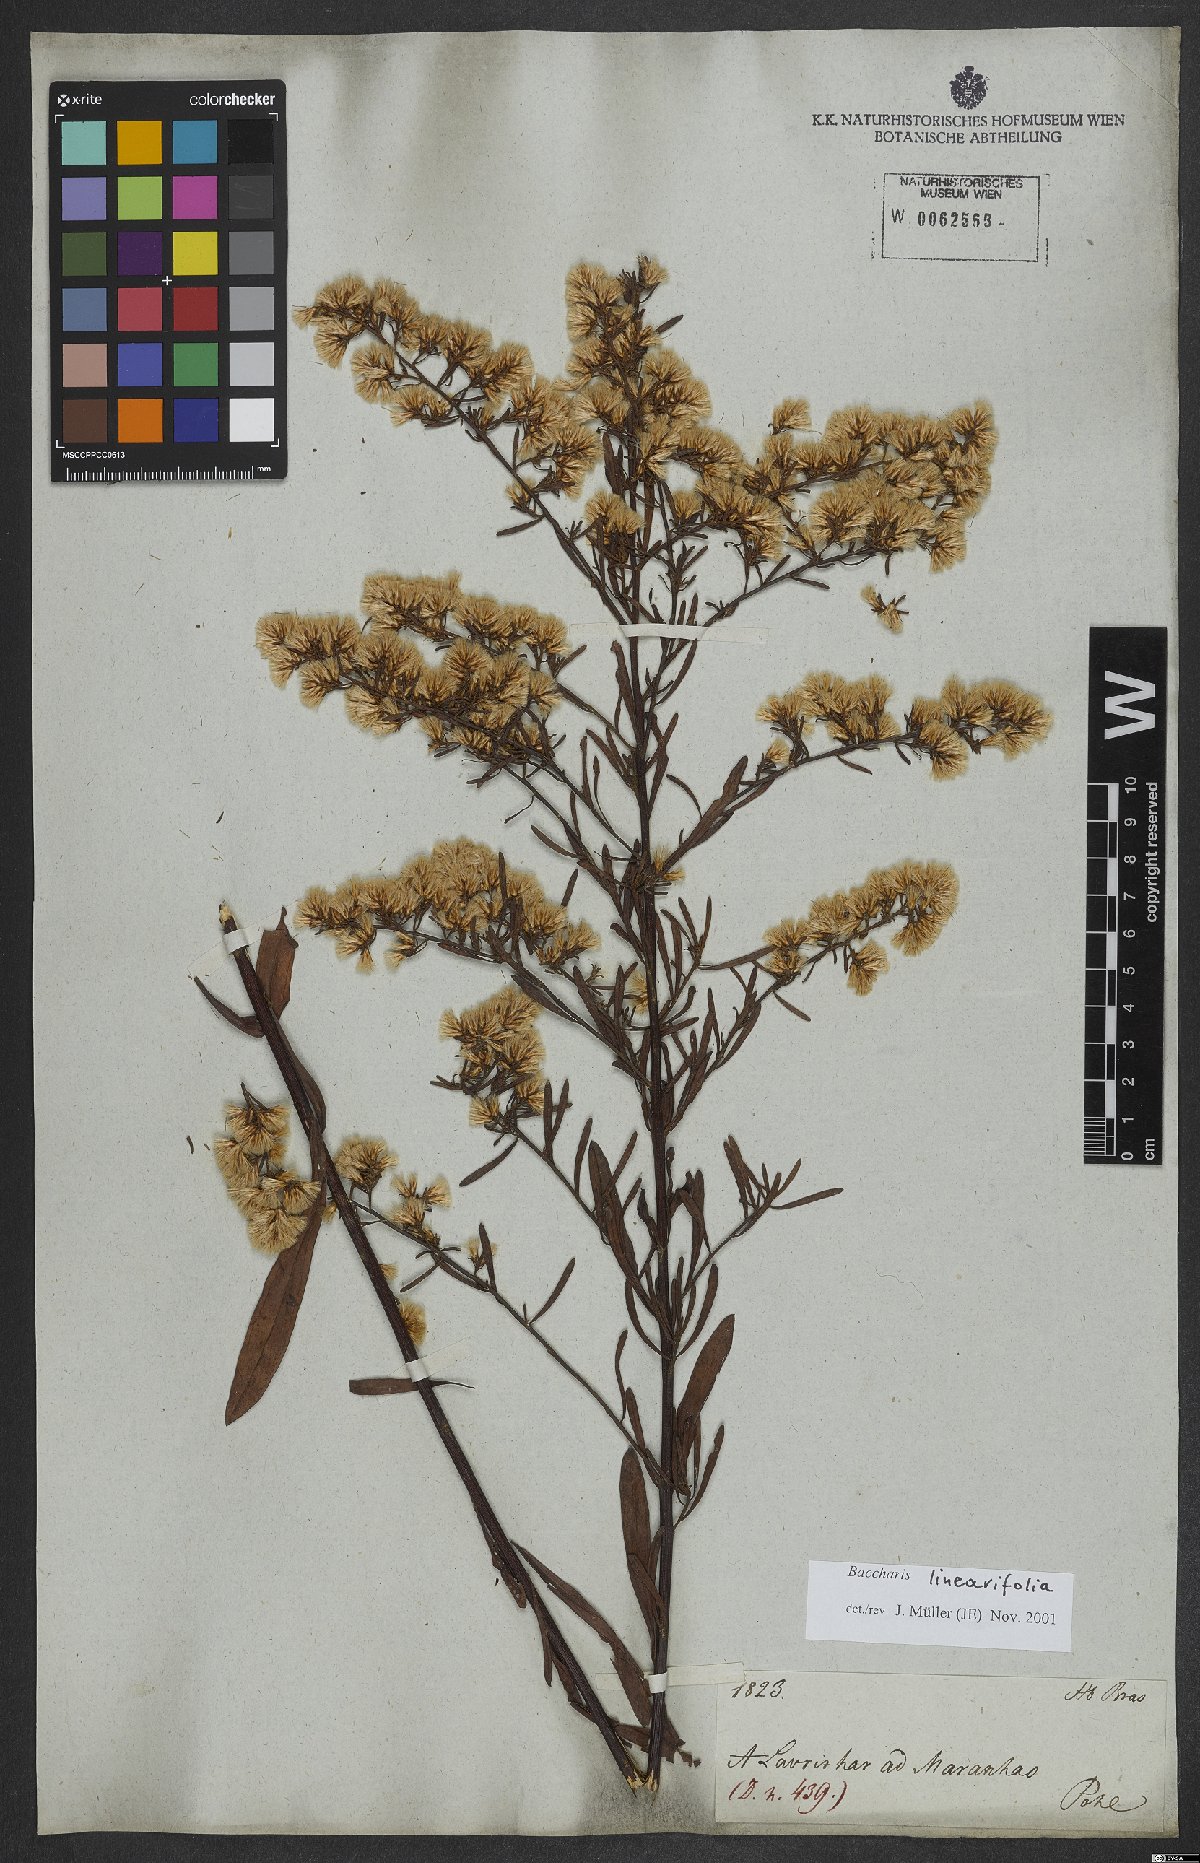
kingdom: Plantae
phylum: Tracheophyta
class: Magnoliopsida
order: Asterales
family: Asteraceae
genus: Baccharis
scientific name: Baccharis linearifolia
